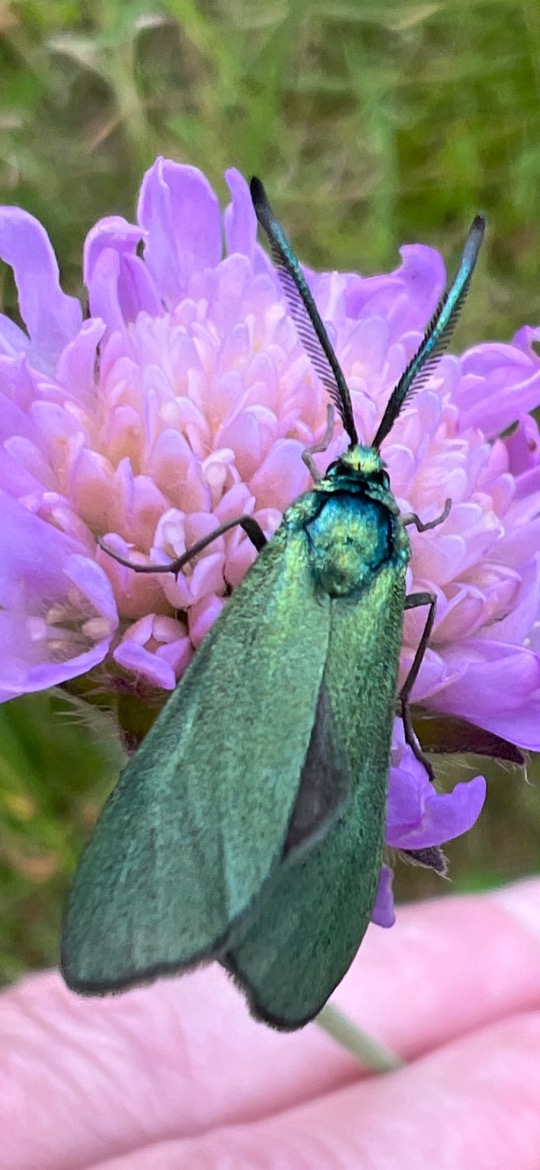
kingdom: Animalia
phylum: Arthropoda
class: Insecta
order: Lepidoptera
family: Zygaenidae
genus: Adscita
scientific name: Adscita statices
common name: Metalvinge
